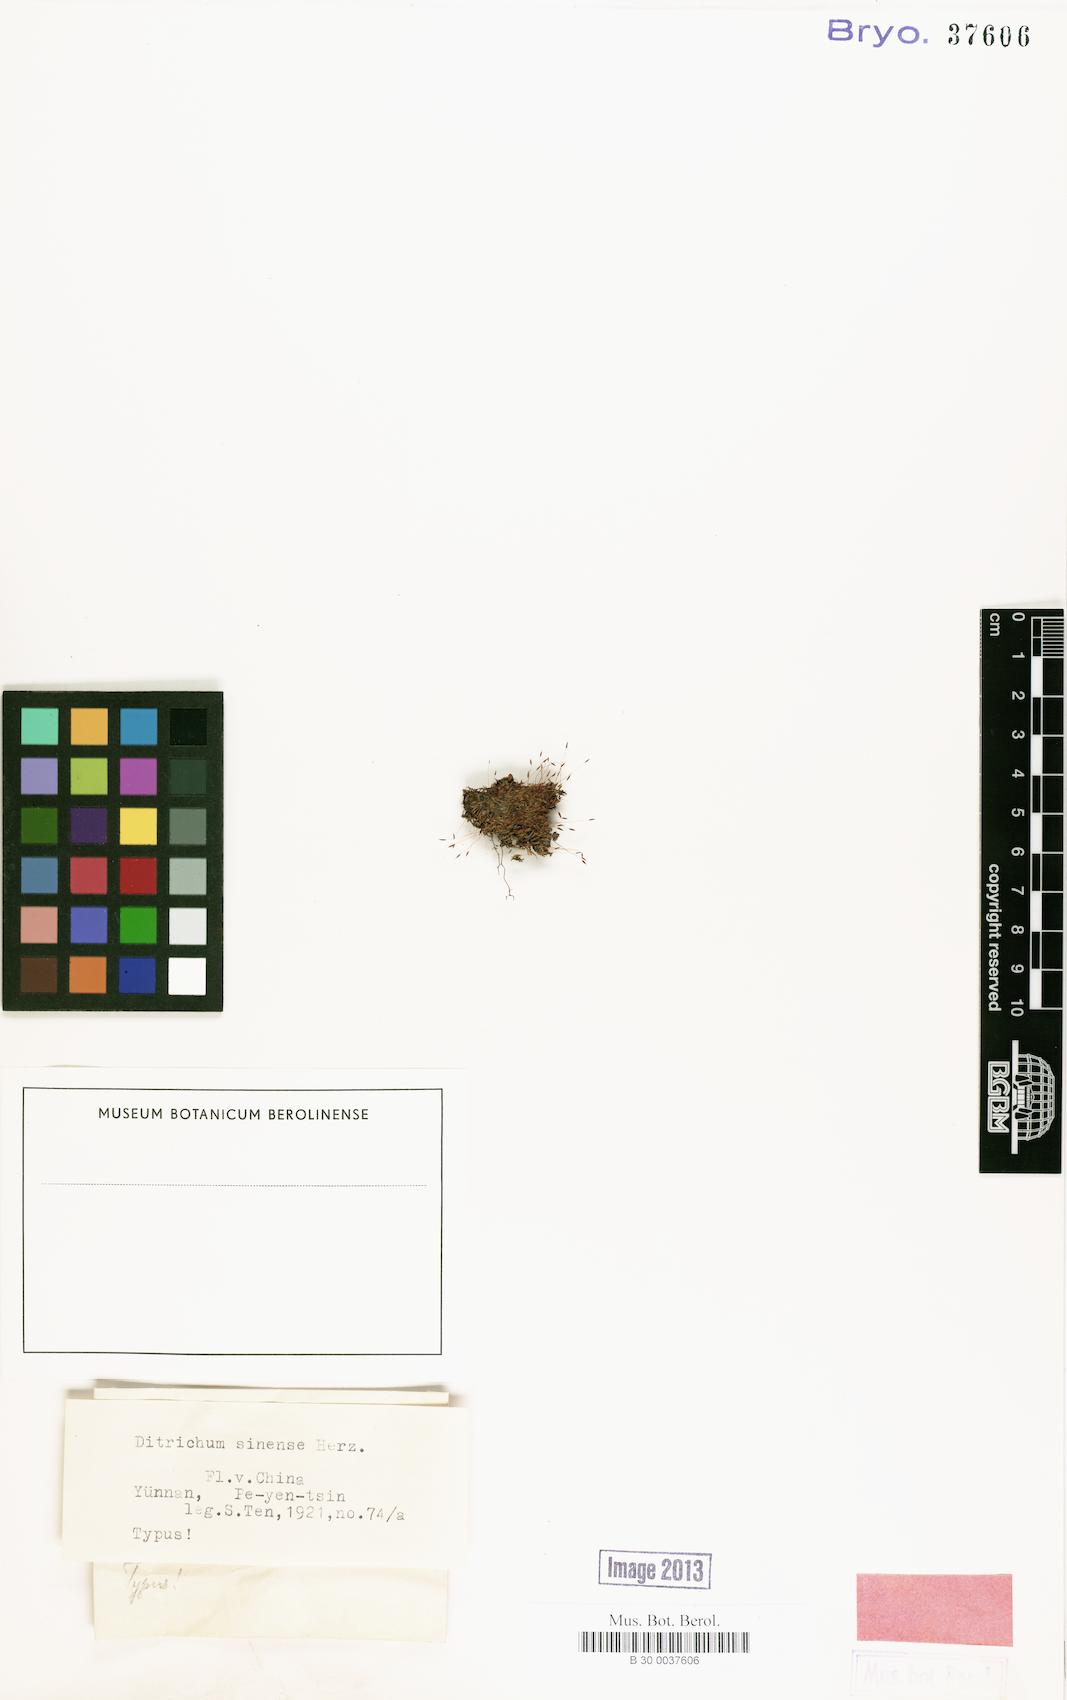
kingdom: Plantae
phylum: Bryophyta
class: Bryopsida
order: Dicranales
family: Ditrichaceae
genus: Ditrichum
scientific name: Ditrichum
